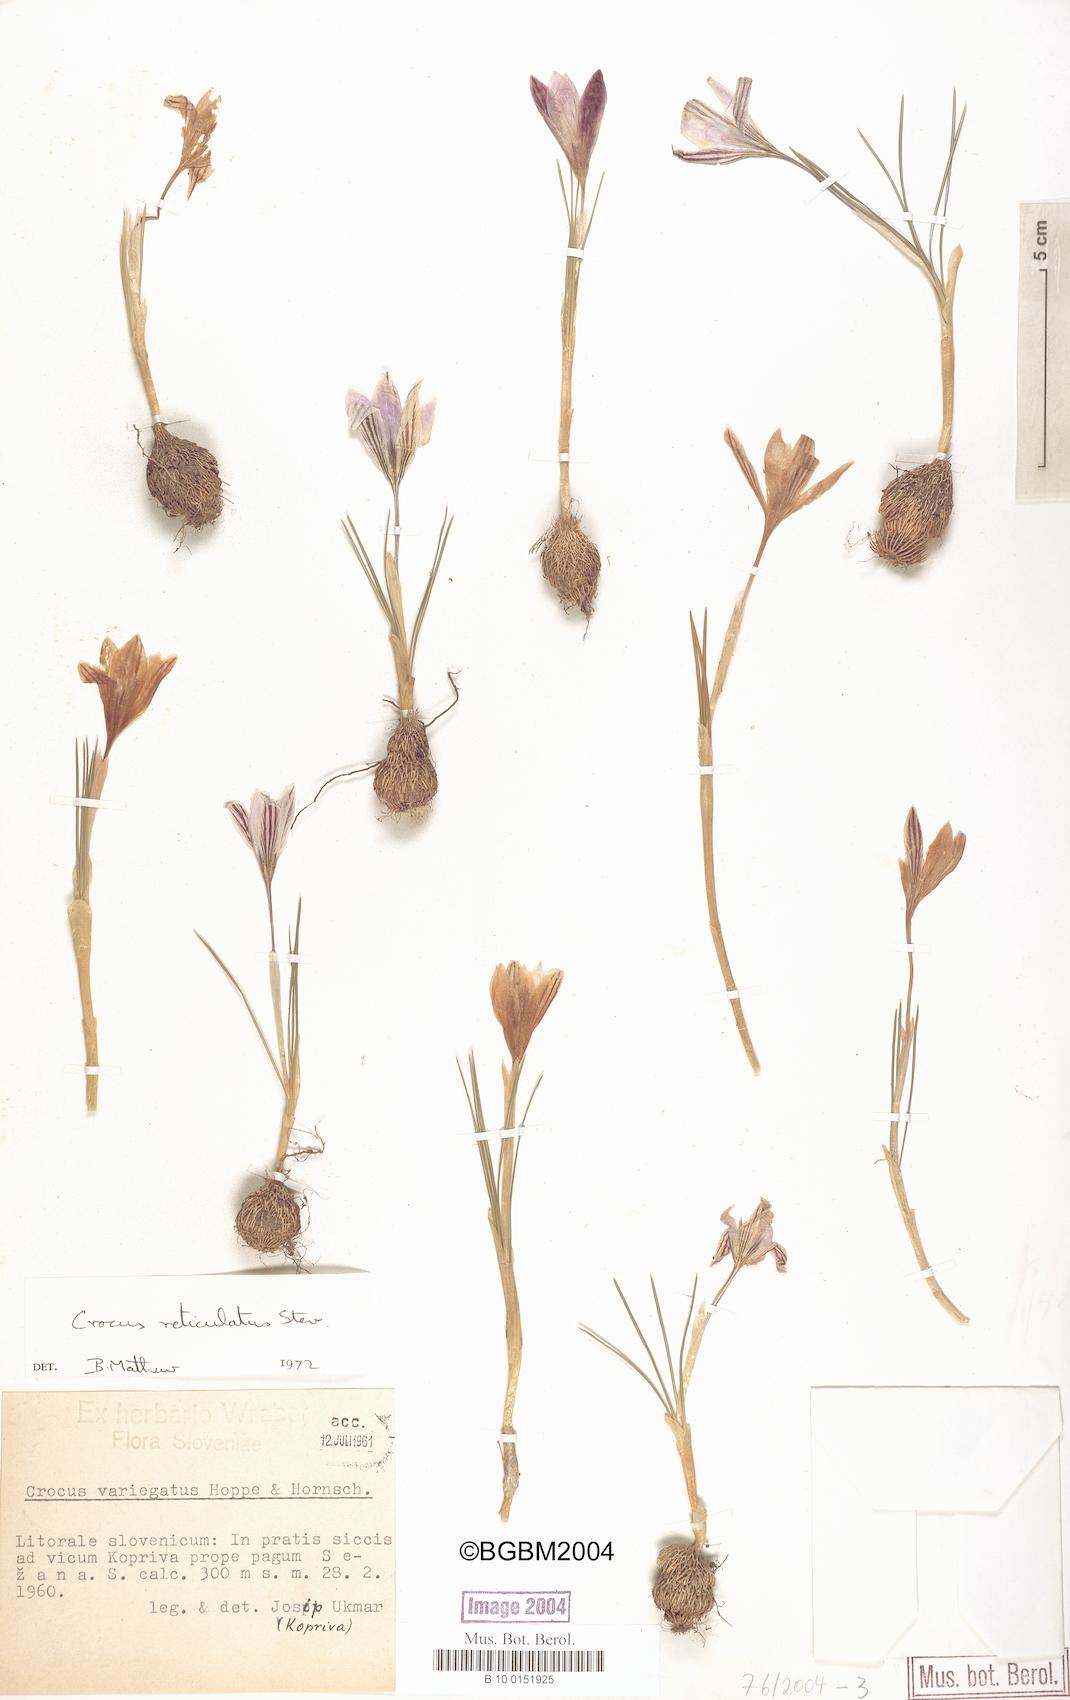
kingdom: Plantae
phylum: Tracheophyta
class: Liliopsida
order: Asparagales
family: Iridaceae
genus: Crocus
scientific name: Crocus reticulatus
